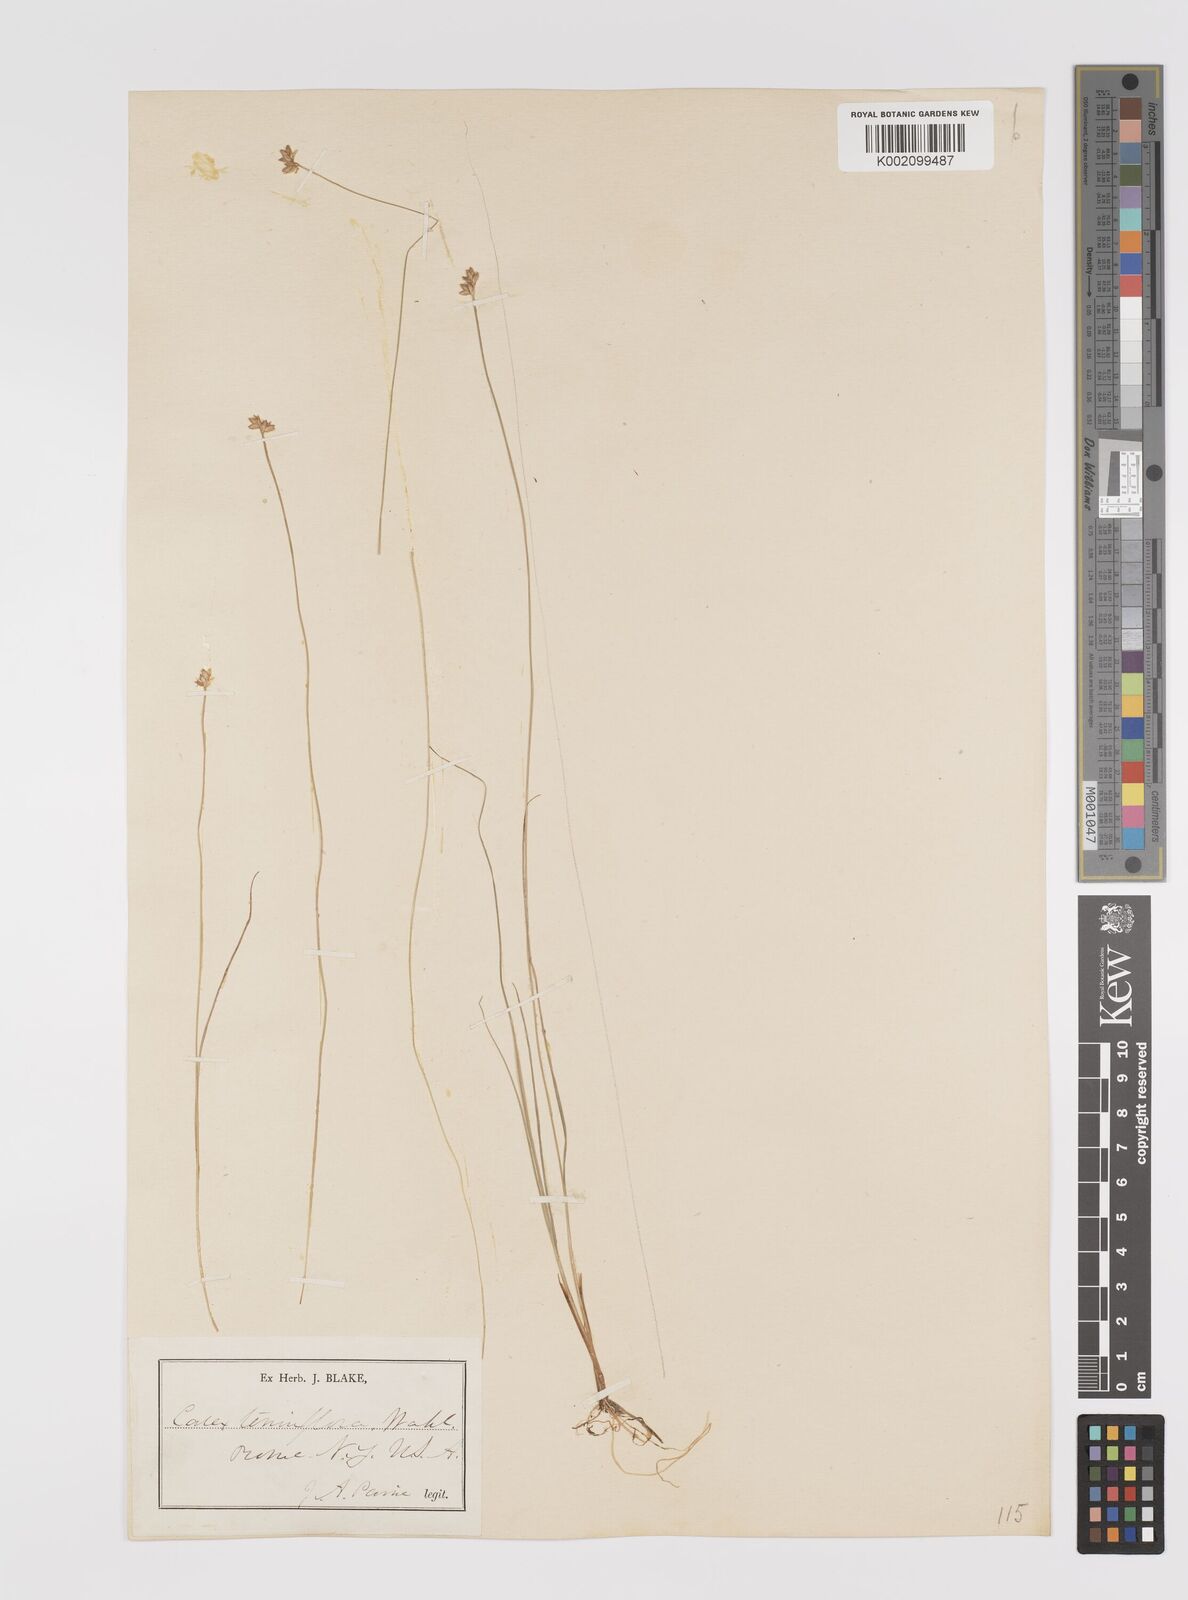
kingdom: Plantae
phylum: Tracheophyta
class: Liliopsida
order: Poales
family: Cyperaceae
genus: Carex
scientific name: Carex tenuiflora
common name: Sparse-flowered sedge
